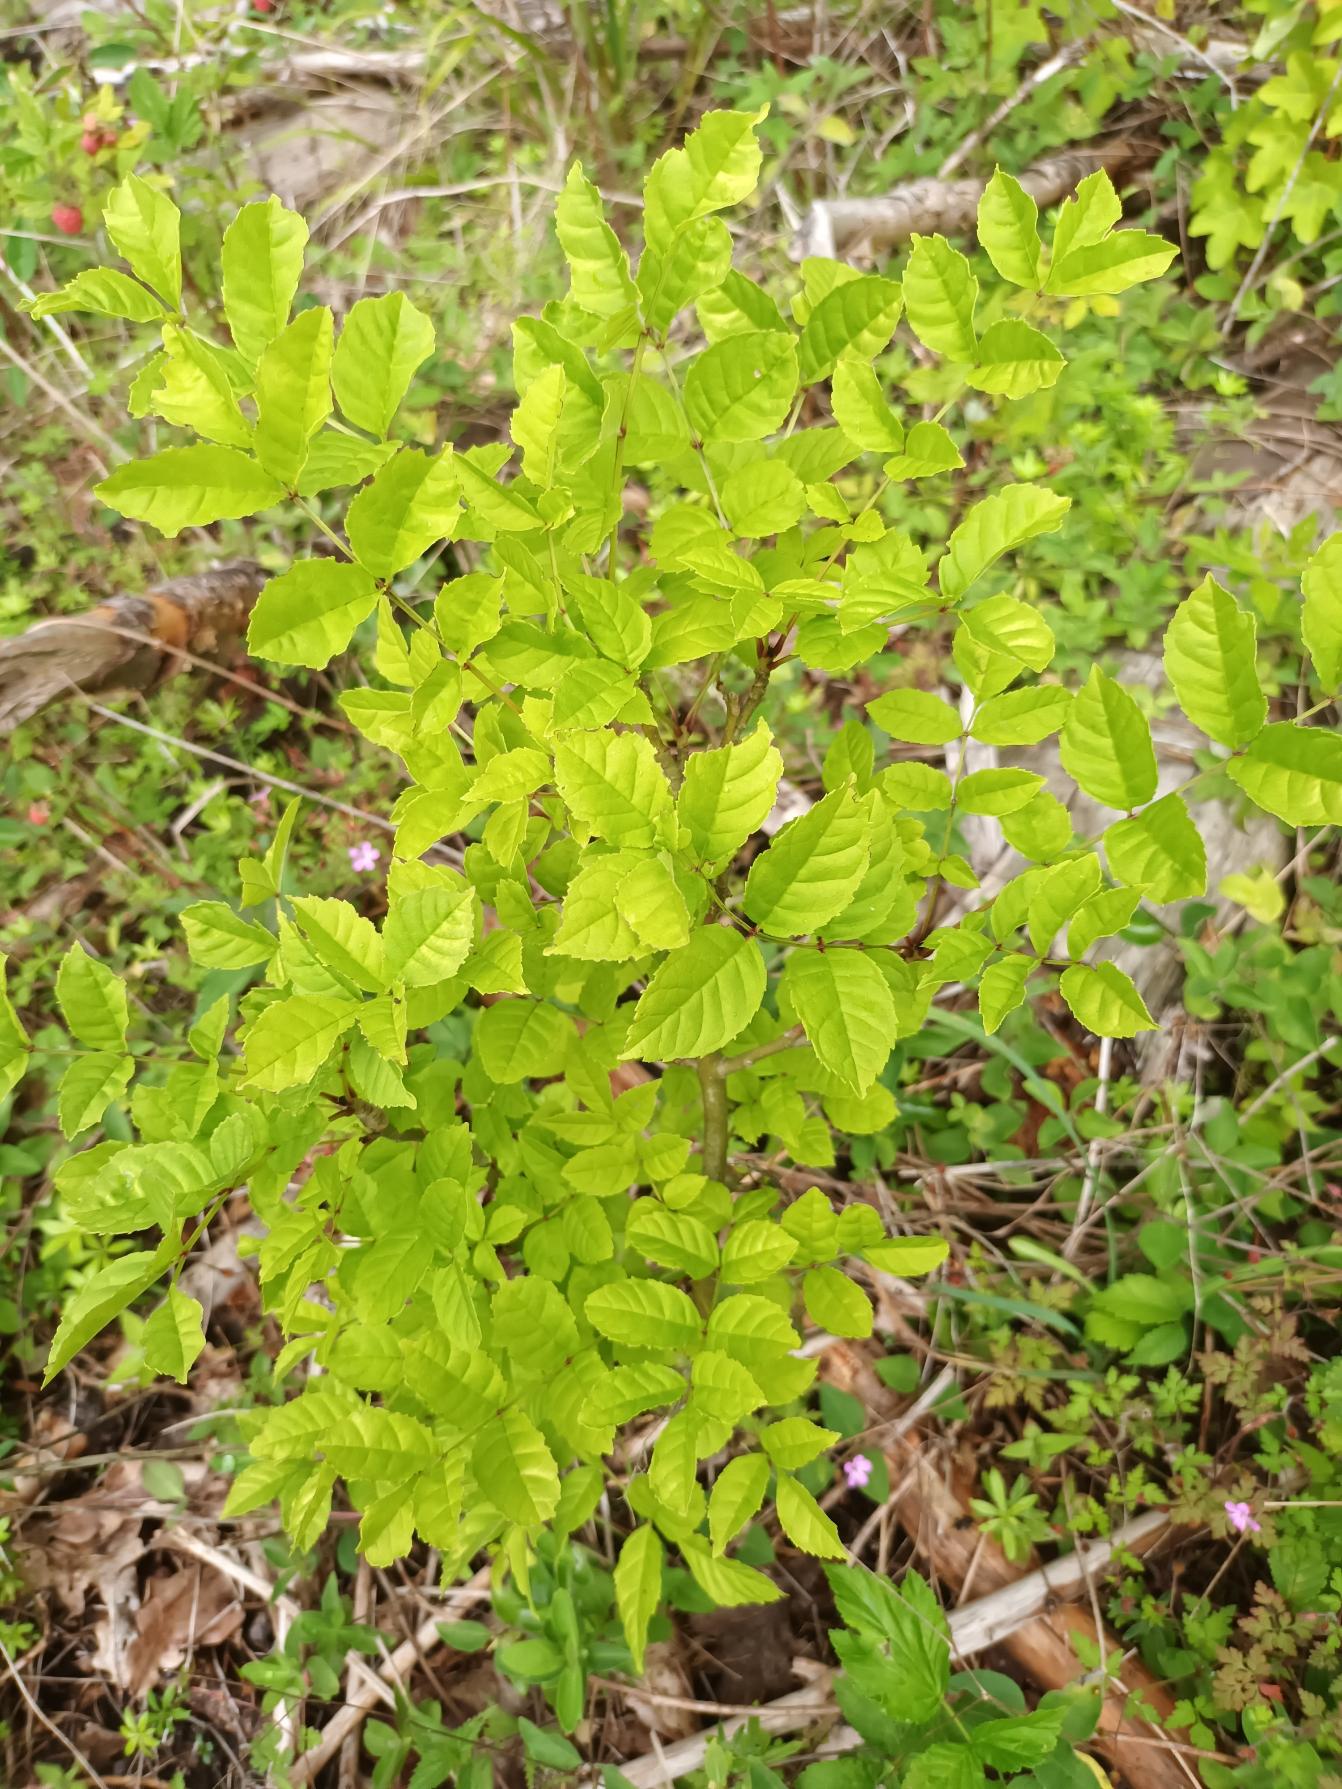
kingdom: Plantae
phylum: Tracheophyta
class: Magnoliopsida
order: Lamiales
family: Oleaceae
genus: Fraxinus
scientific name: Fraxinus excelsior
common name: Ask
